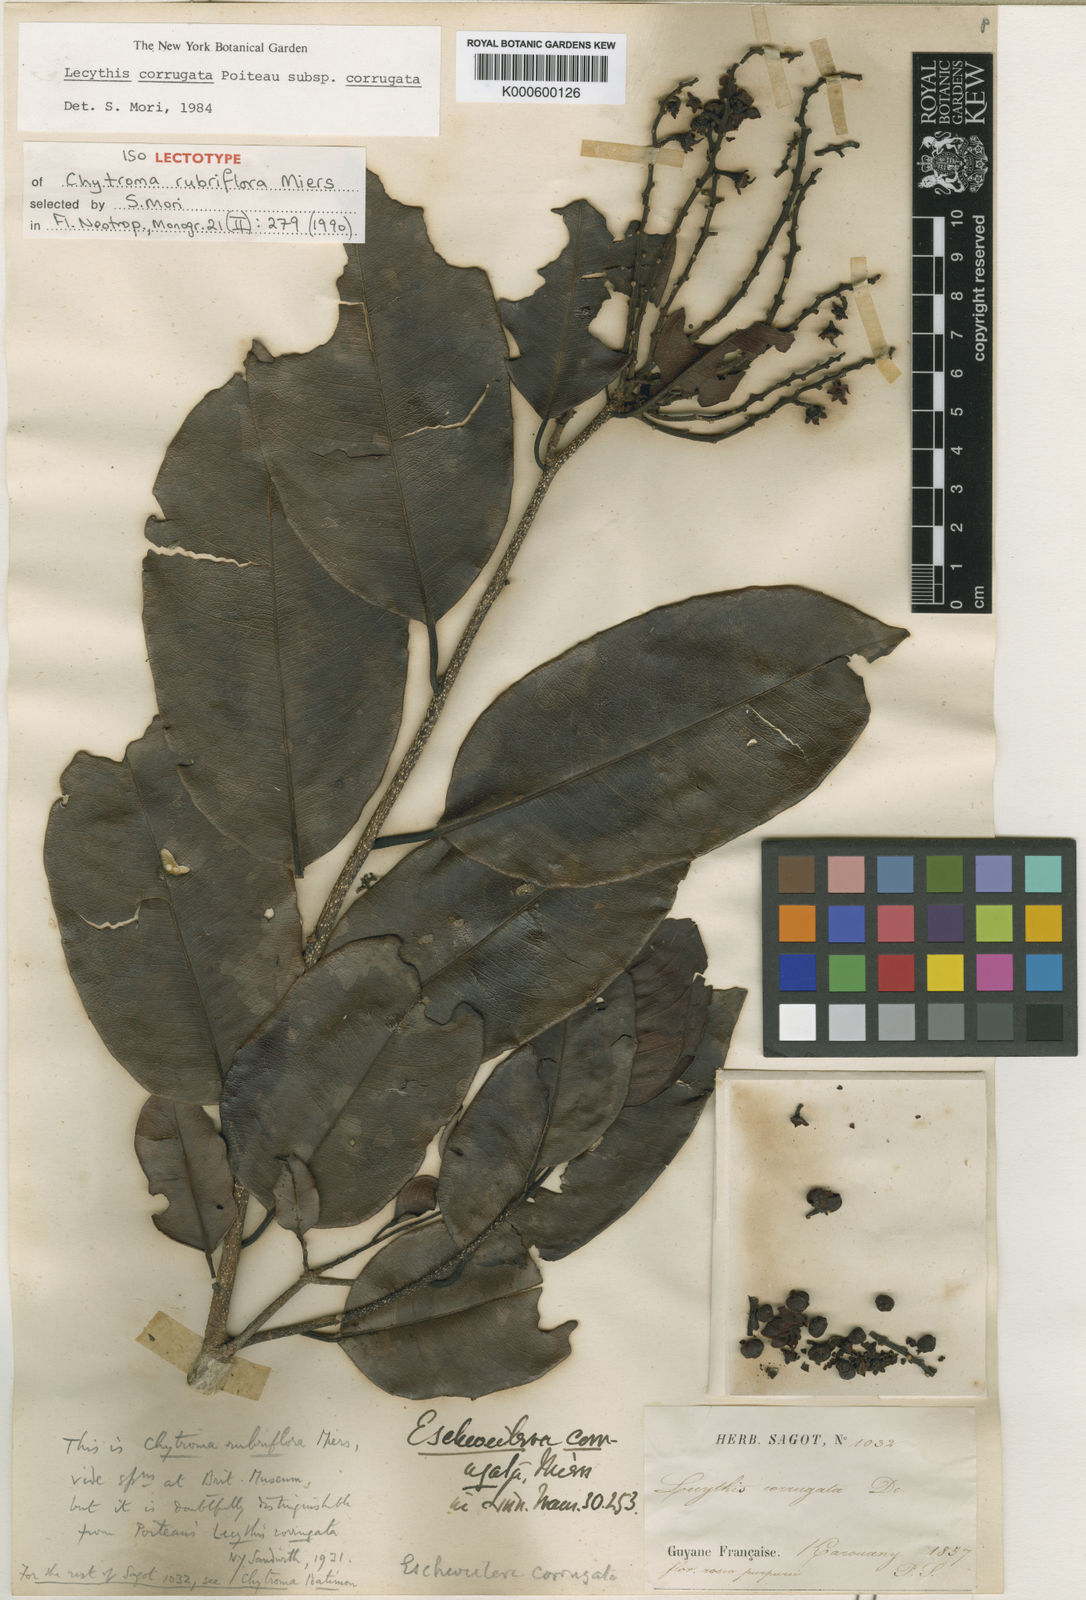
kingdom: Plantae
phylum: Tracheophyta
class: Magnoliopsida
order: Ericales
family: Lecythidaceae
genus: Lecythis
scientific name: Lecythis corrugata
